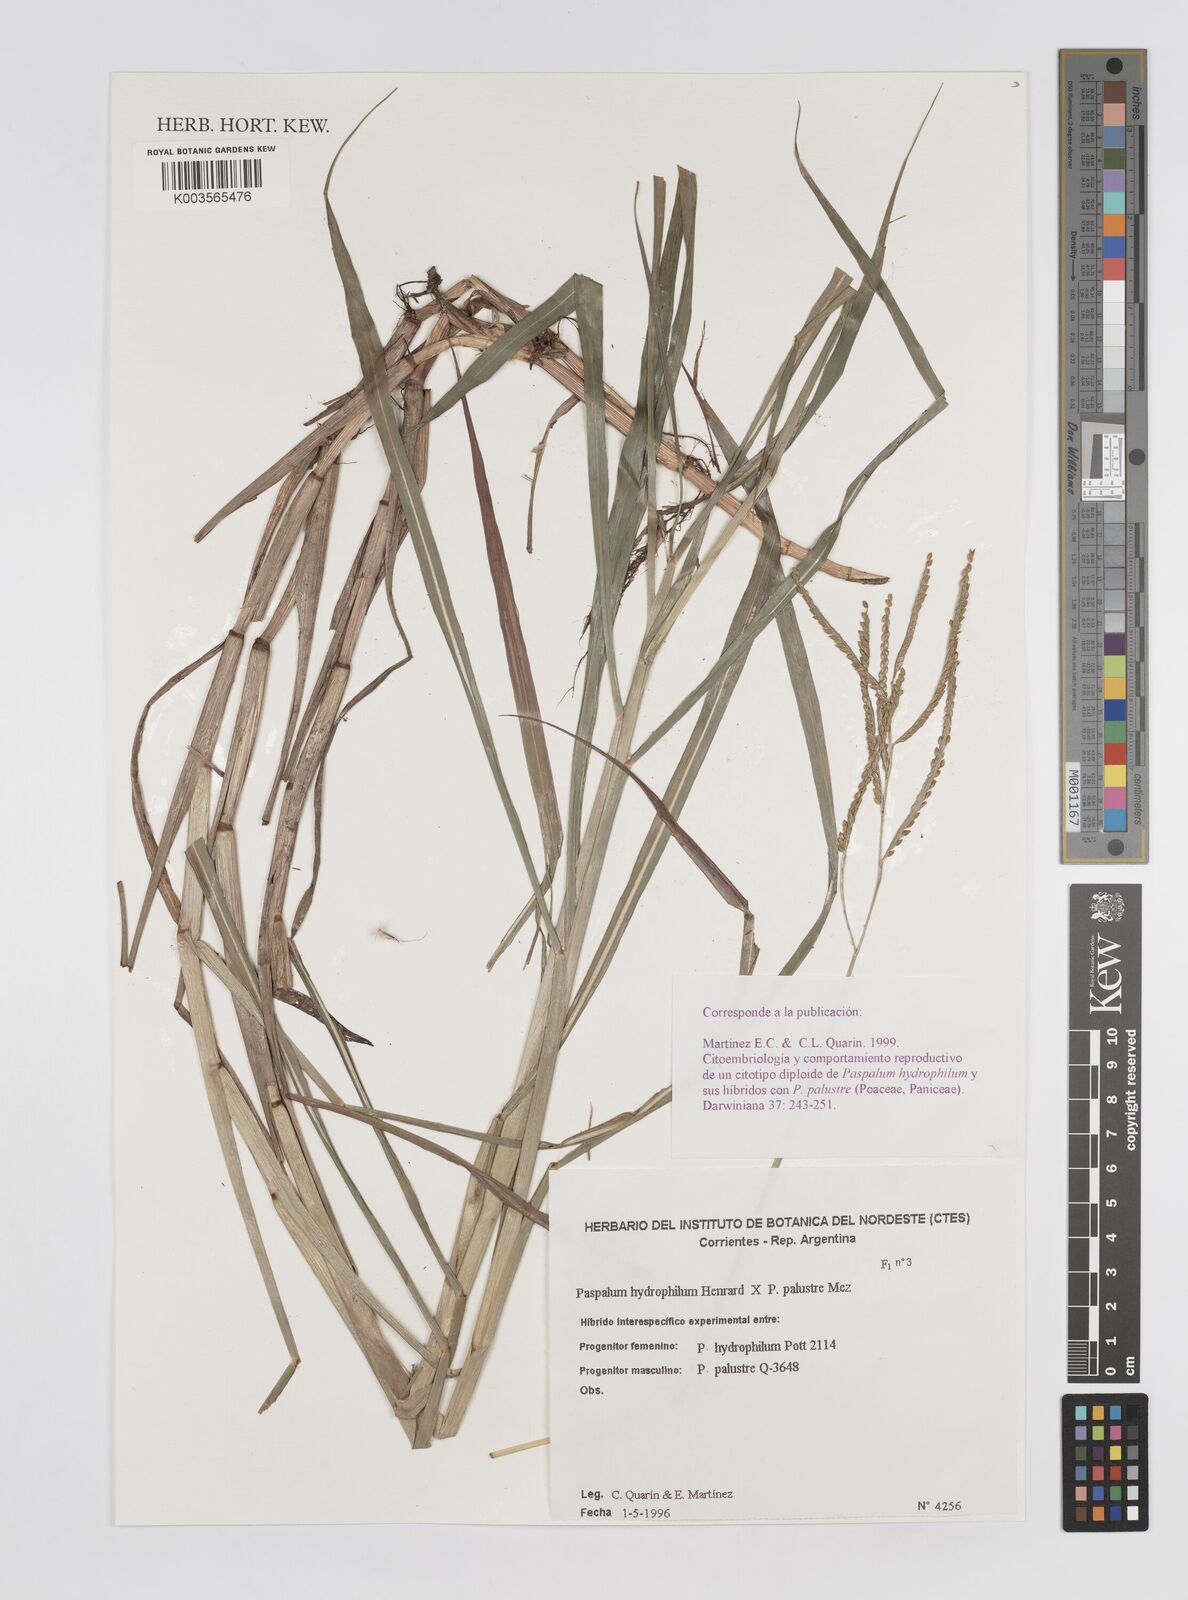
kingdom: Plantae
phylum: Tracheophyta
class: Liliopsida
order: Poales
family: Poaceae
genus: Paspalum
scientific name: Paspalum wrightii
